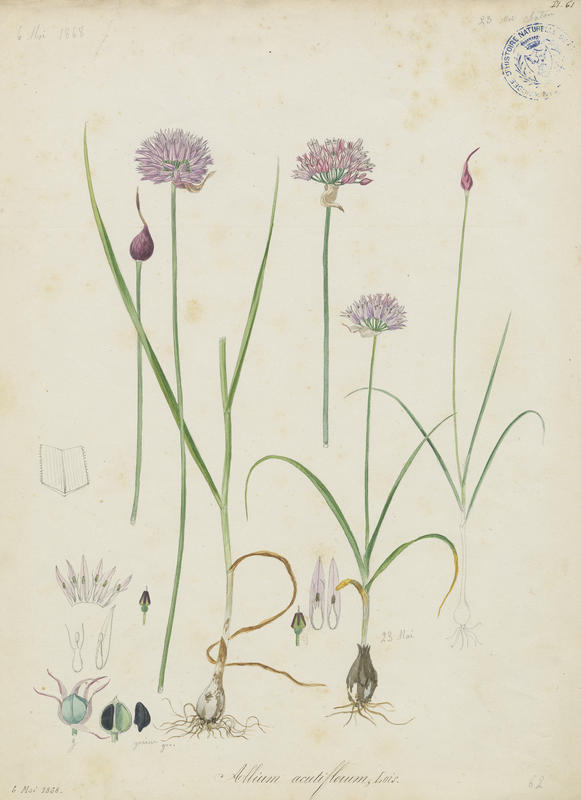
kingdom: Plantae
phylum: Tracheophyta
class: Liliopsida
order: Asparagales
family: Amaryllidaceae
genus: Allium
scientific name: Allium acutiflorum
